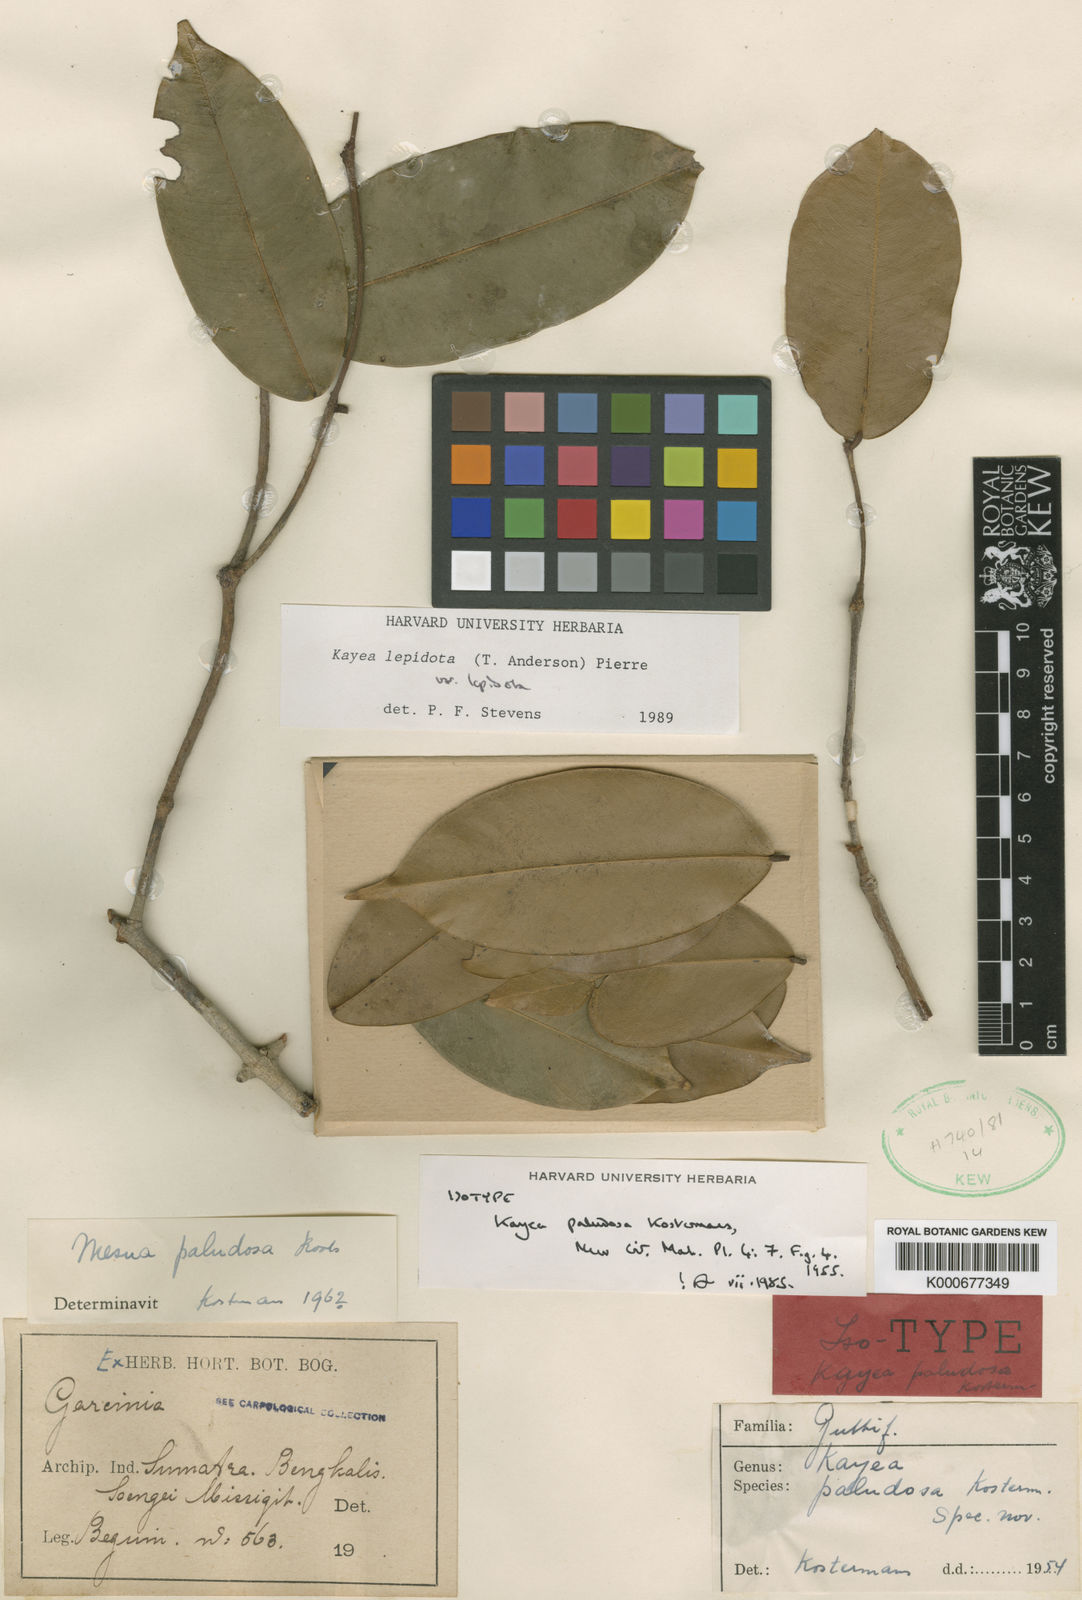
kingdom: Plantae
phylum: Tracheophyta
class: Magnoliopsida
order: Malpighiales
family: Calophyllaceae
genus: Kayea
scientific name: Kayea lepidota
